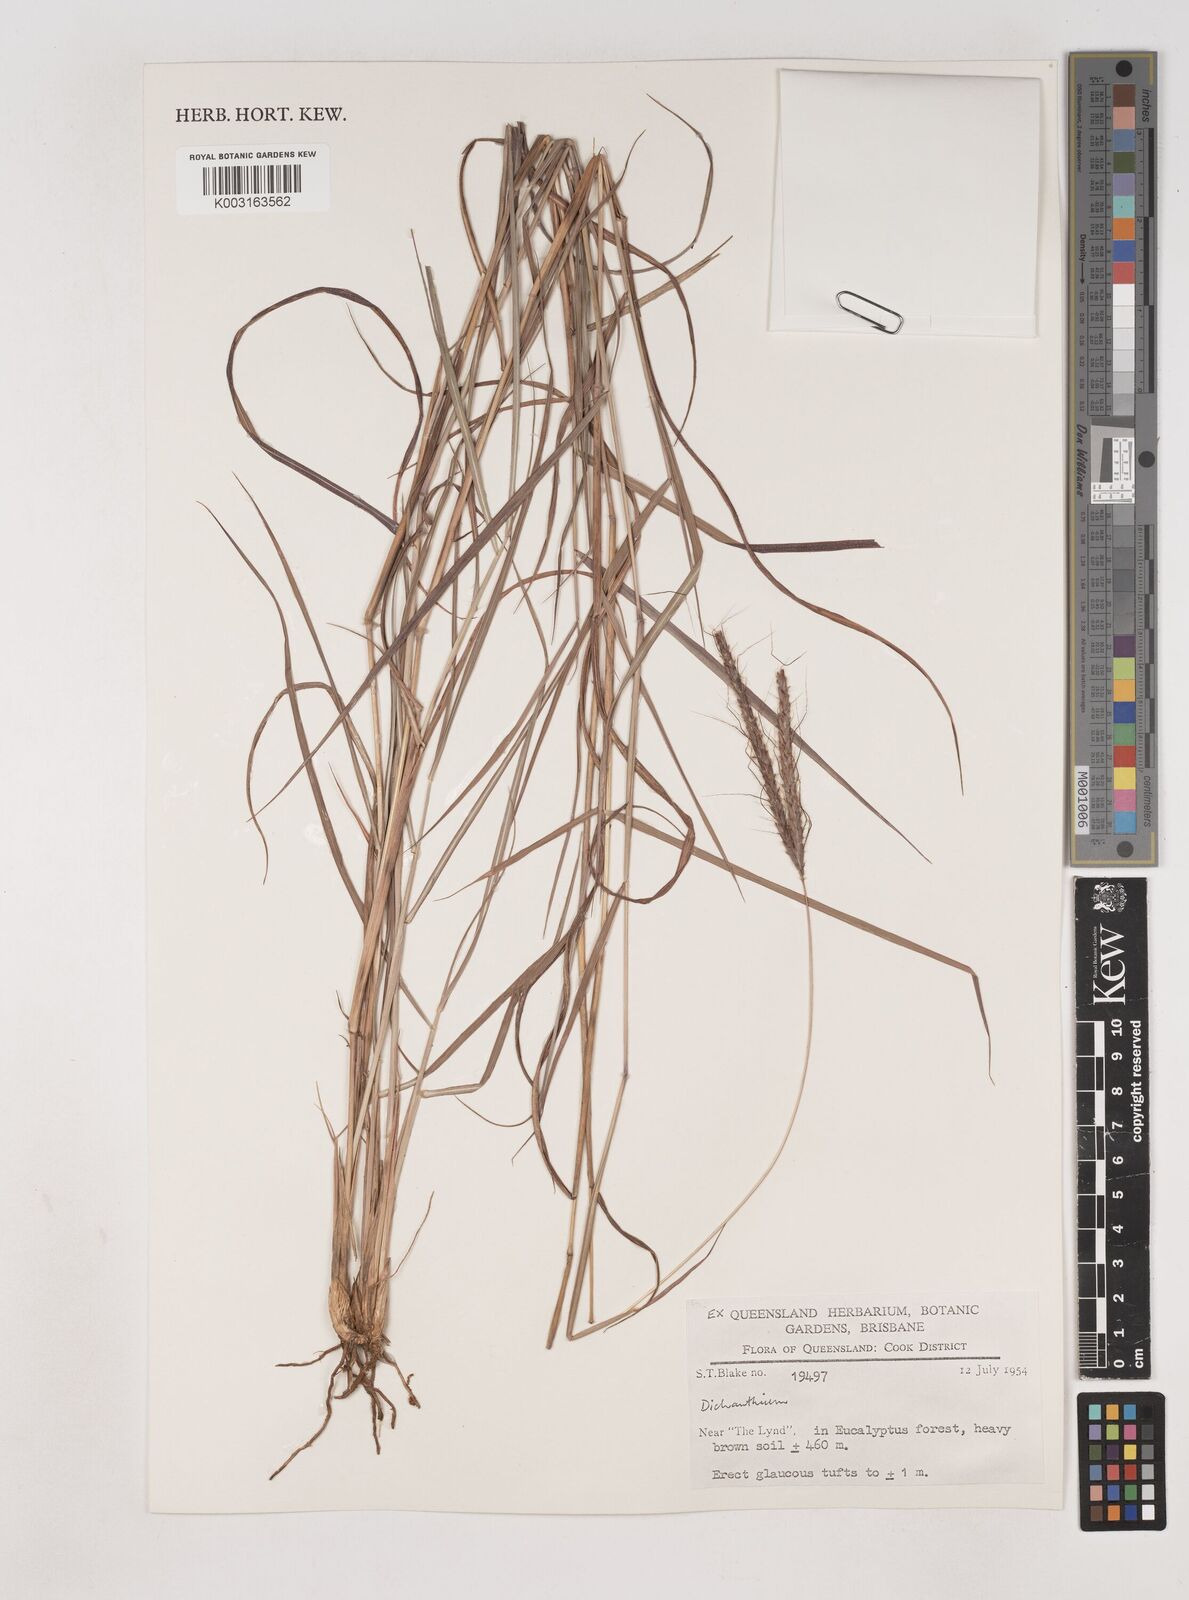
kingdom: Plantae
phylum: Tracheophyta
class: Liliopsida
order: Poales
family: Poaceae
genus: Dichanthium
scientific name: Dichanthium
